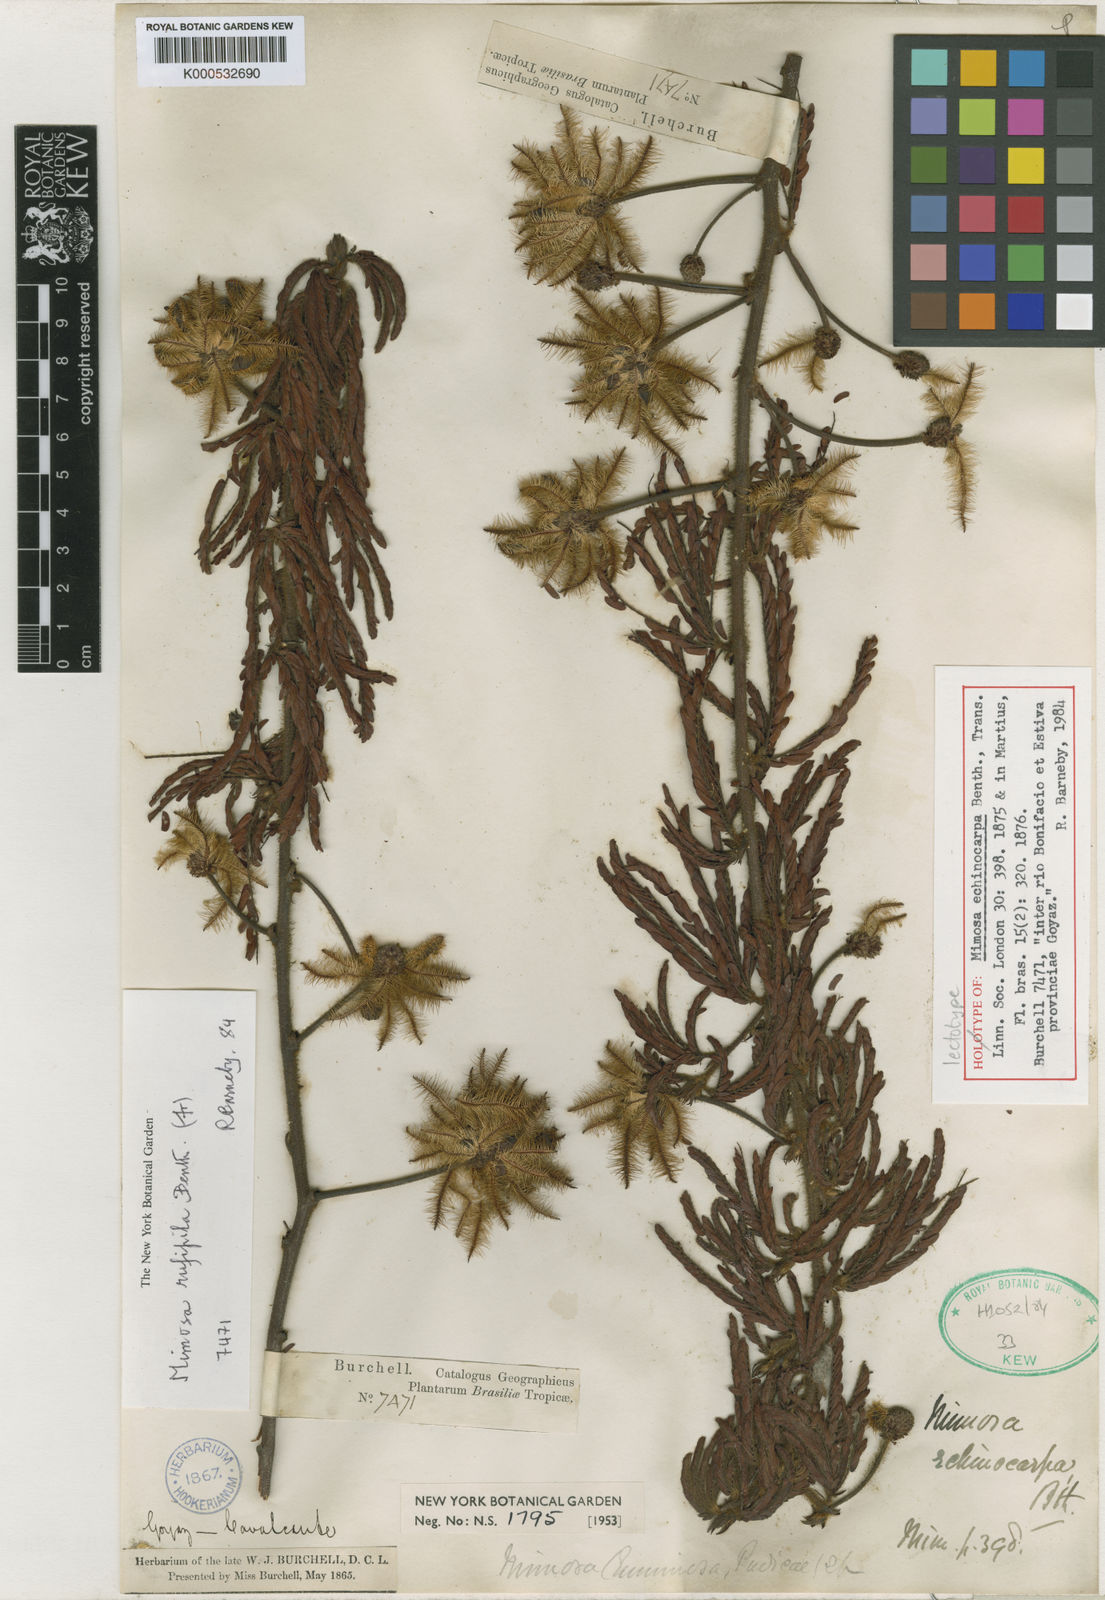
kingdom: Plantae
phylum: Tracheophyta
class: Magnoliopsida
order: Fabales
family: Fabaceae
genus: Mimosa
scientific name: Mimosa rufipila
